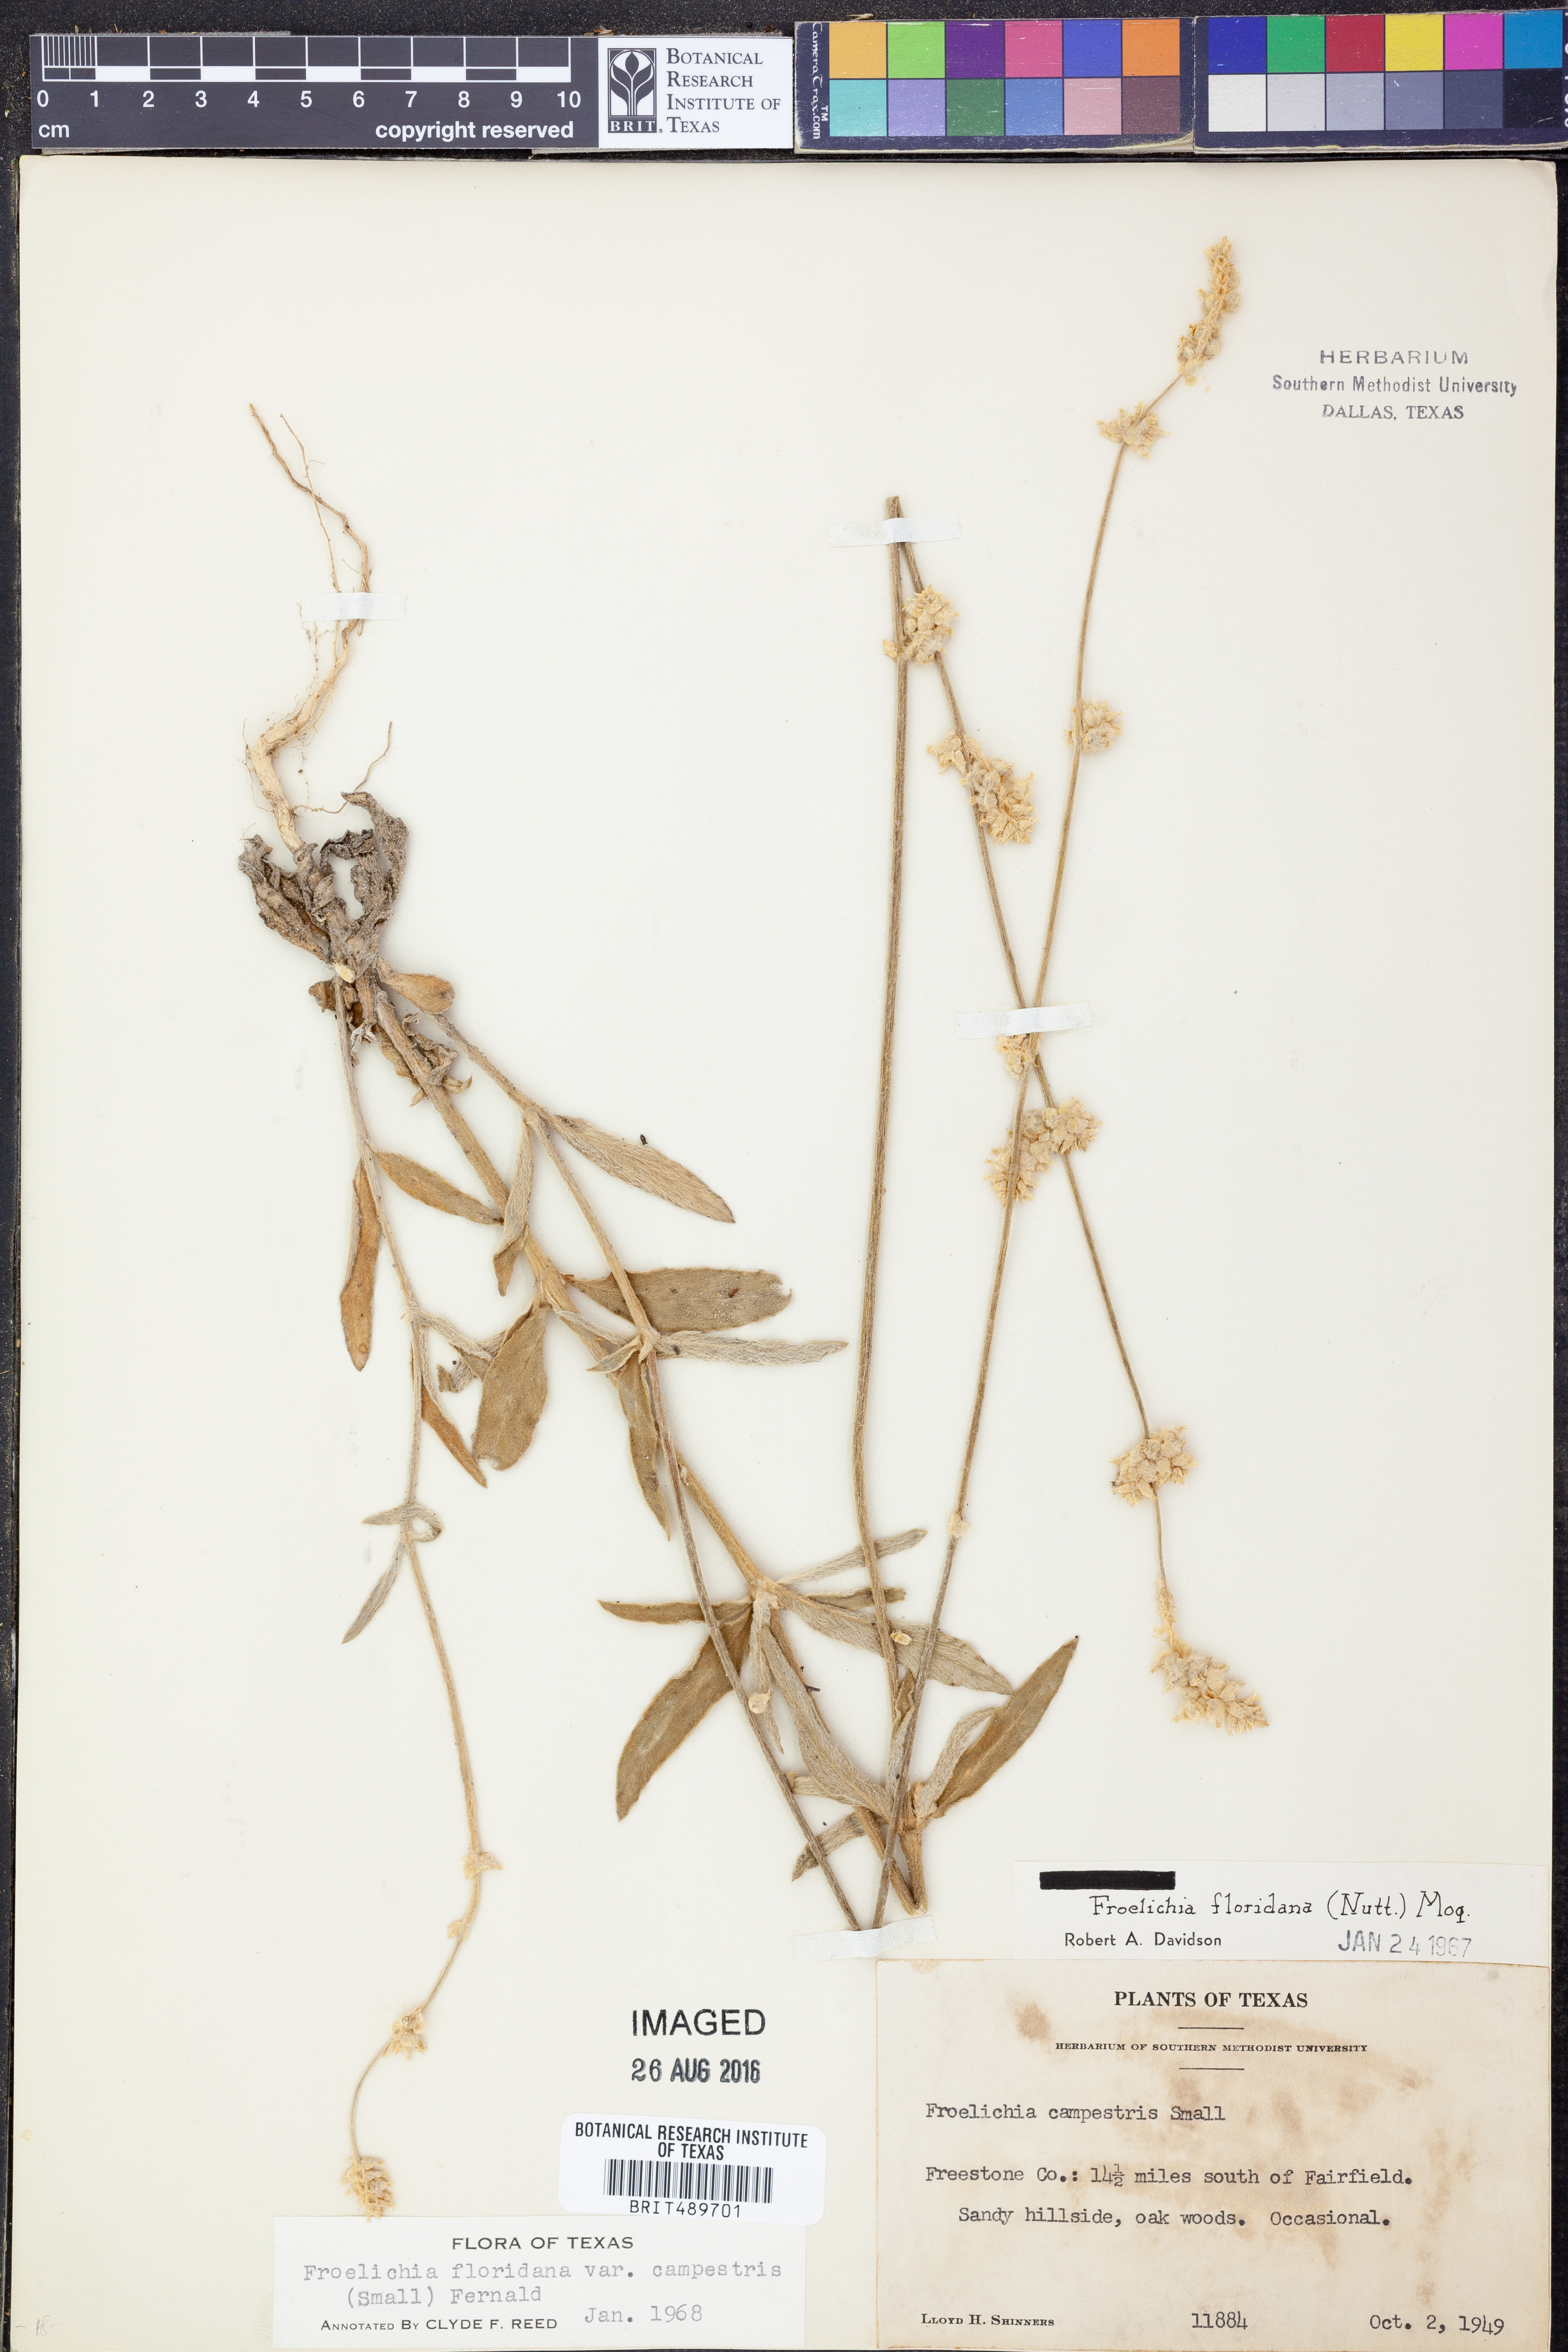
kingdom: Plantae
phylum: Tracheophyta
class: Magnoliopsida
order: Caryophyllales
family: Amaranthaceae
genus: Froelichia
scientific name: Froelichia floridana
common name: Florida snake-cotton
